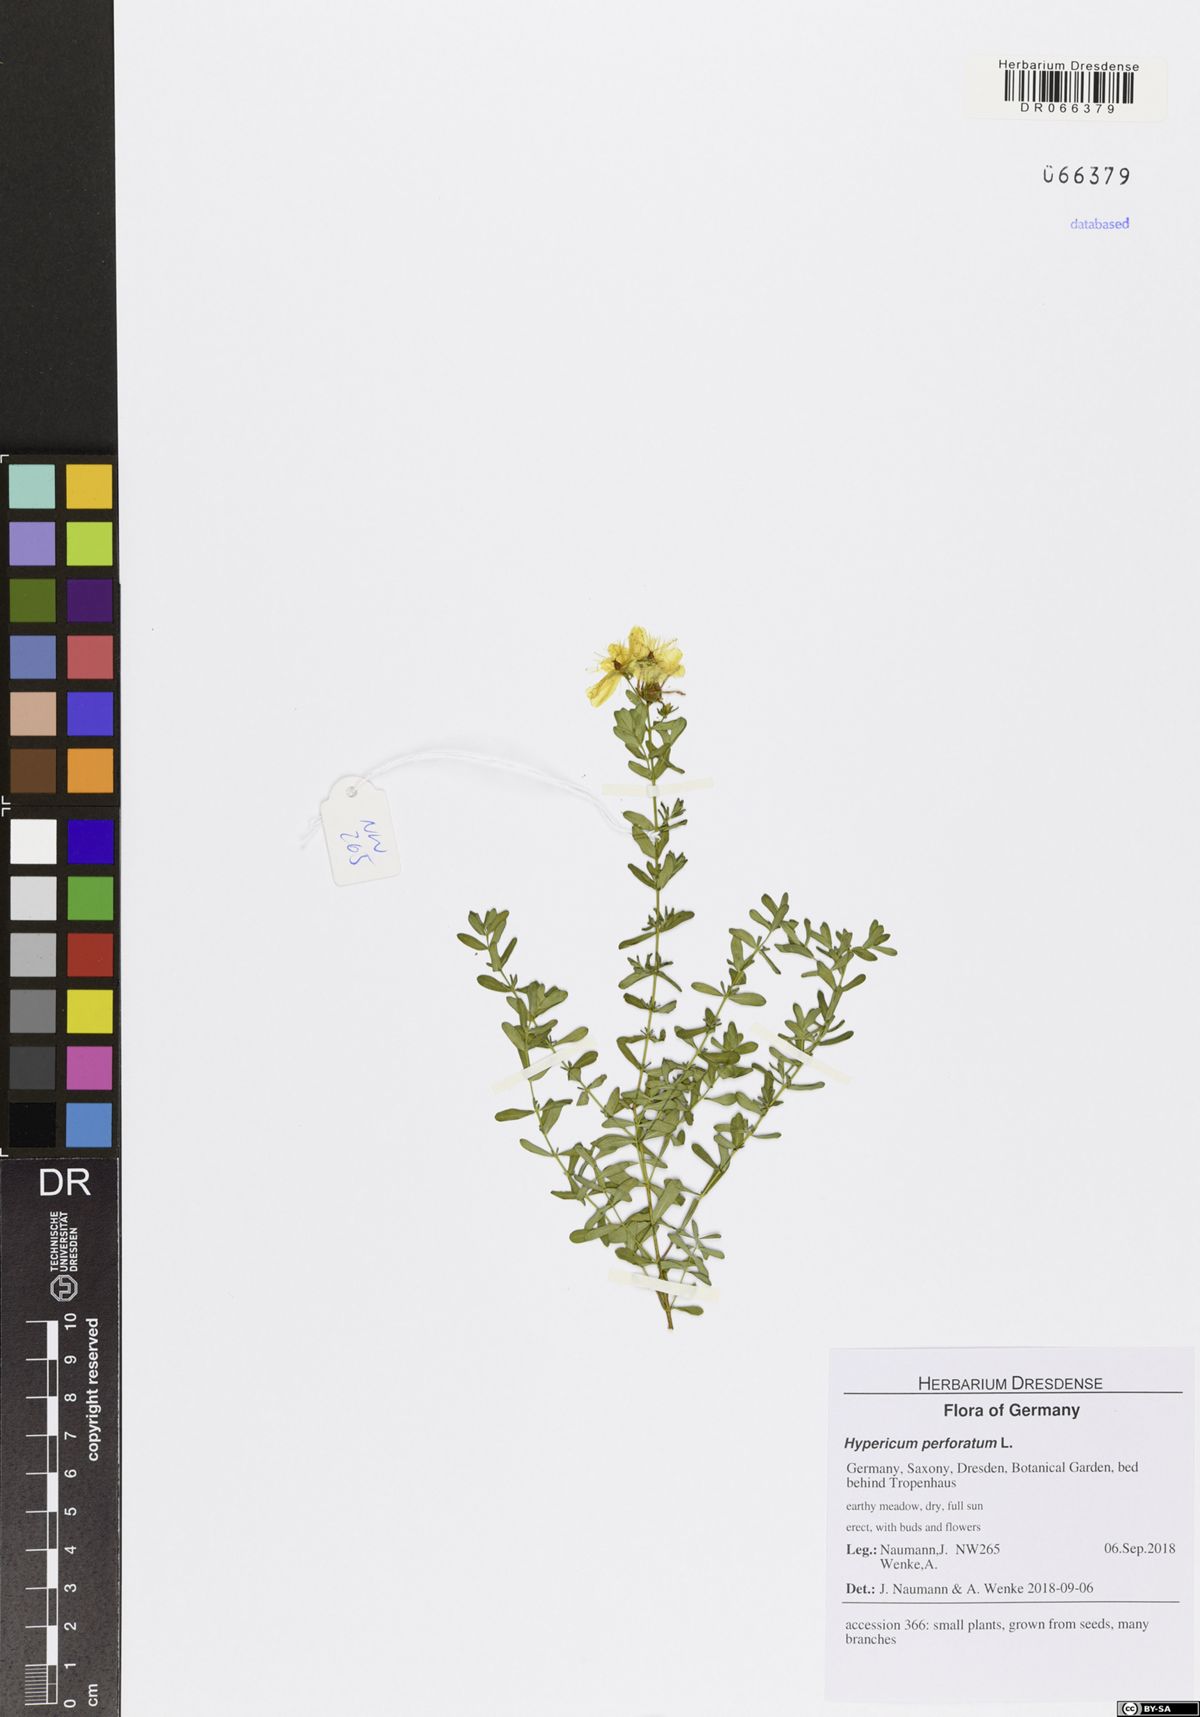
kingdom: Plantae
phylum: Tracheophyta
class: Magnoliopsida
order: Malpighiales
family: Hypericaceae
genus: Hypericum
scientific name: Hypericum perforatum
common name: Common st. johnswort
